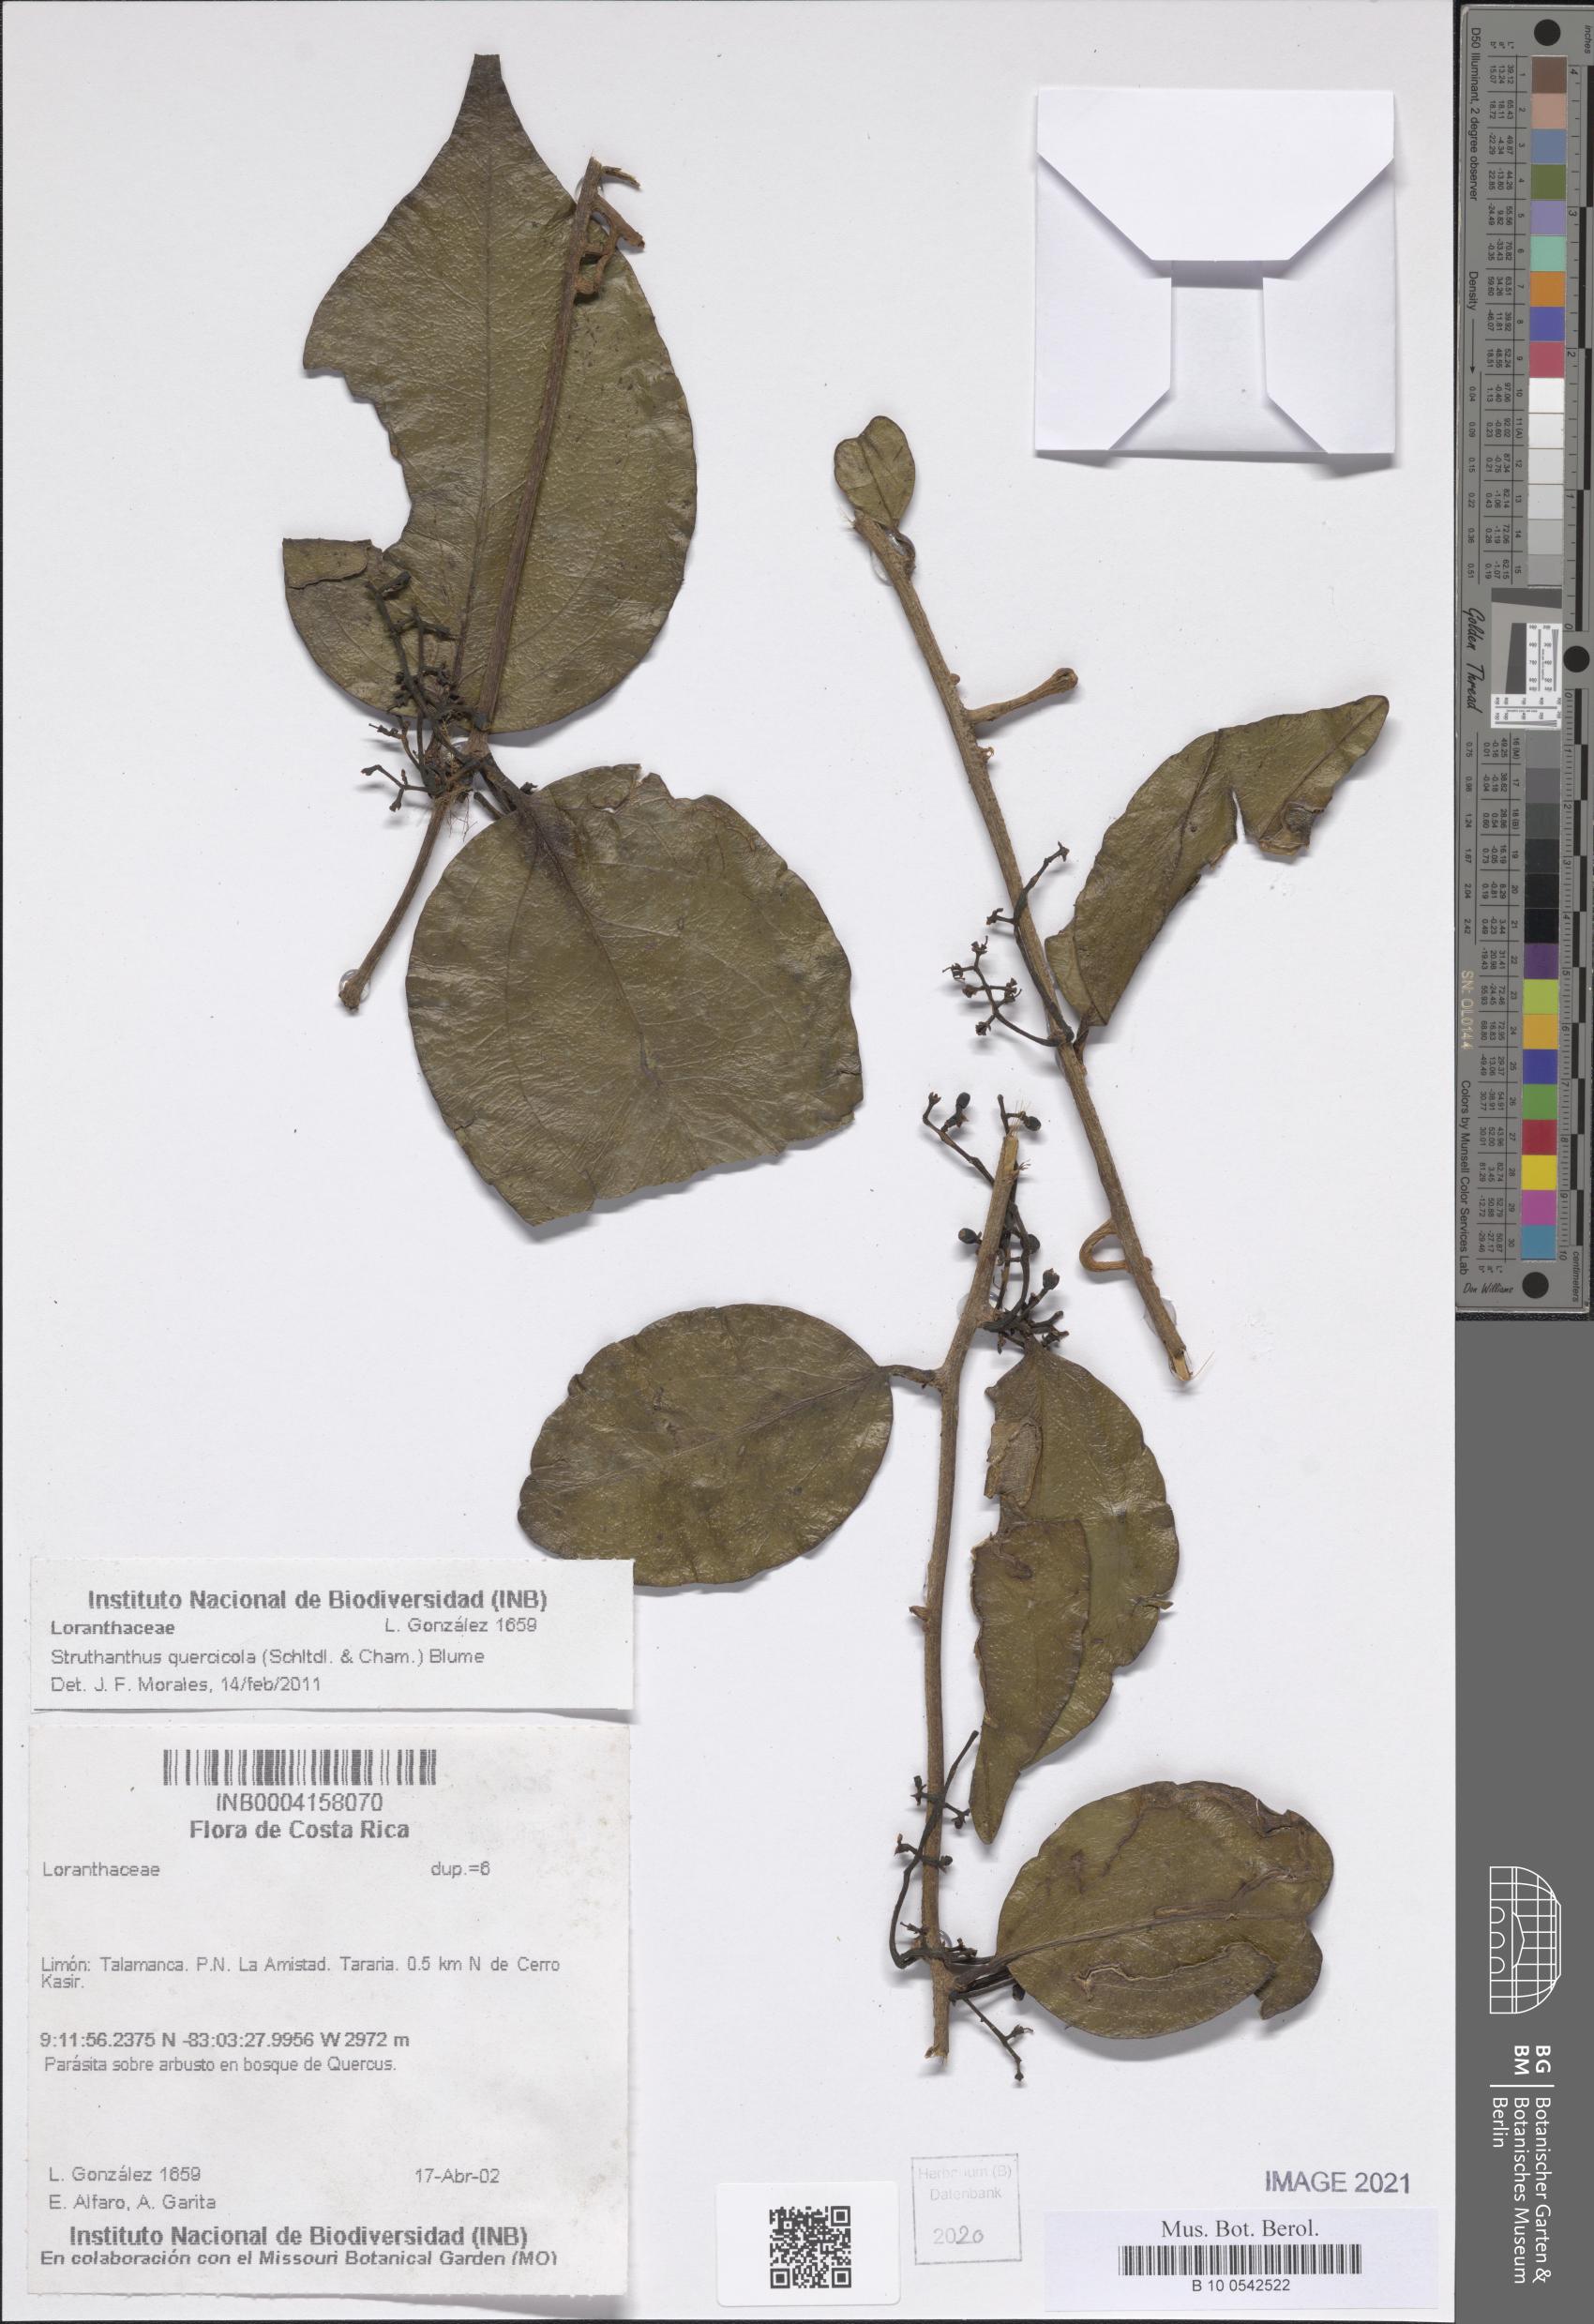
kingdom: Plantae
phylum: Tracheophyta
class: Magnoliopsida
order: Santalales
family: Loranthaceae
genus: Struthanthus
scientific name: Struthanthus quercicola
